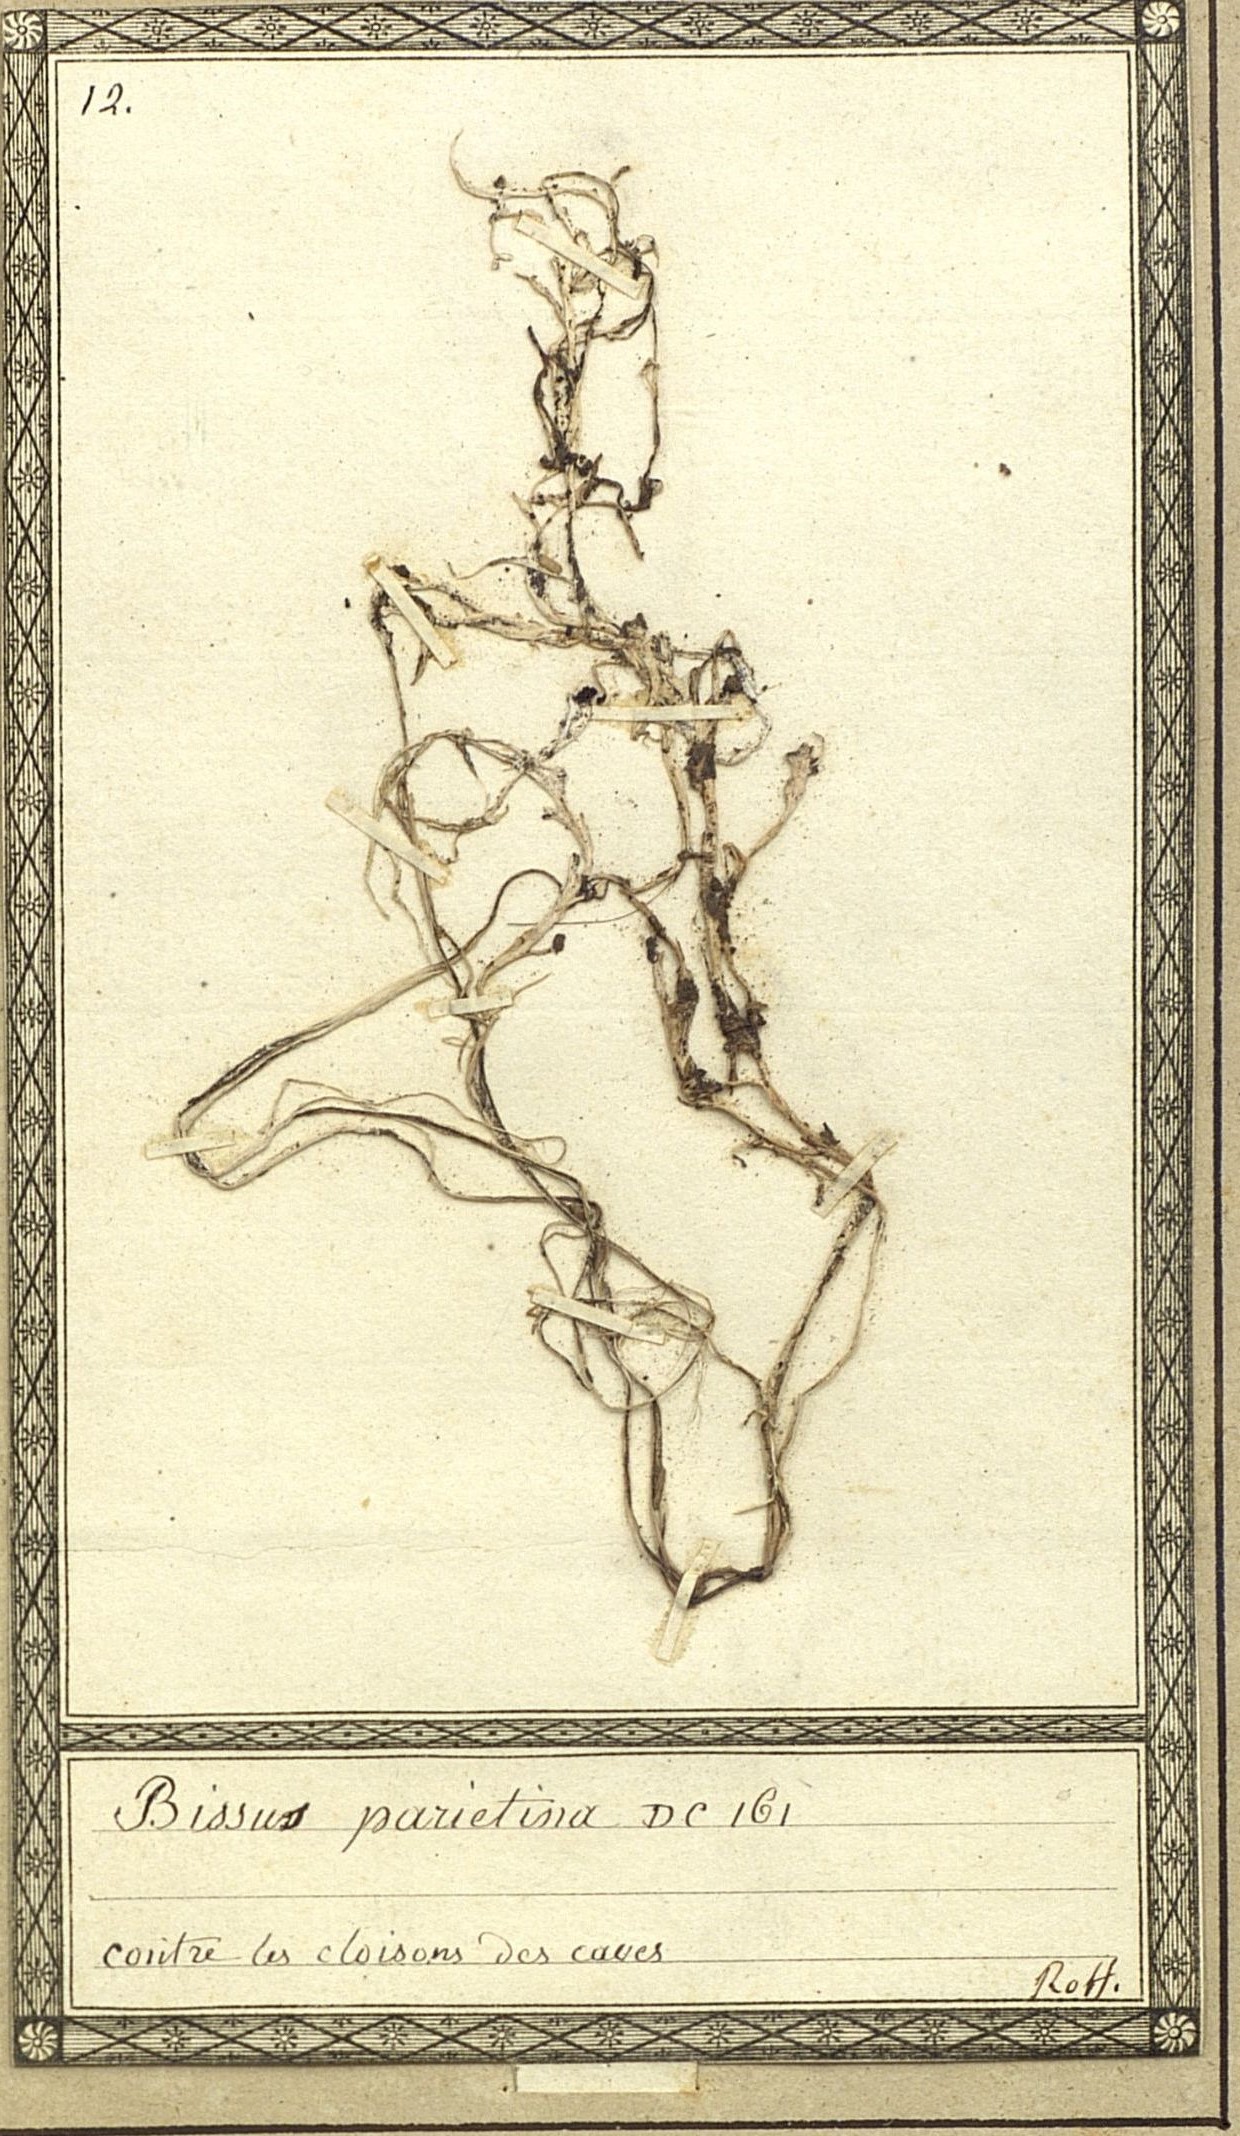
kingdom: Fungi
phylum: Ascomycota
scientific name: Ascomycota
